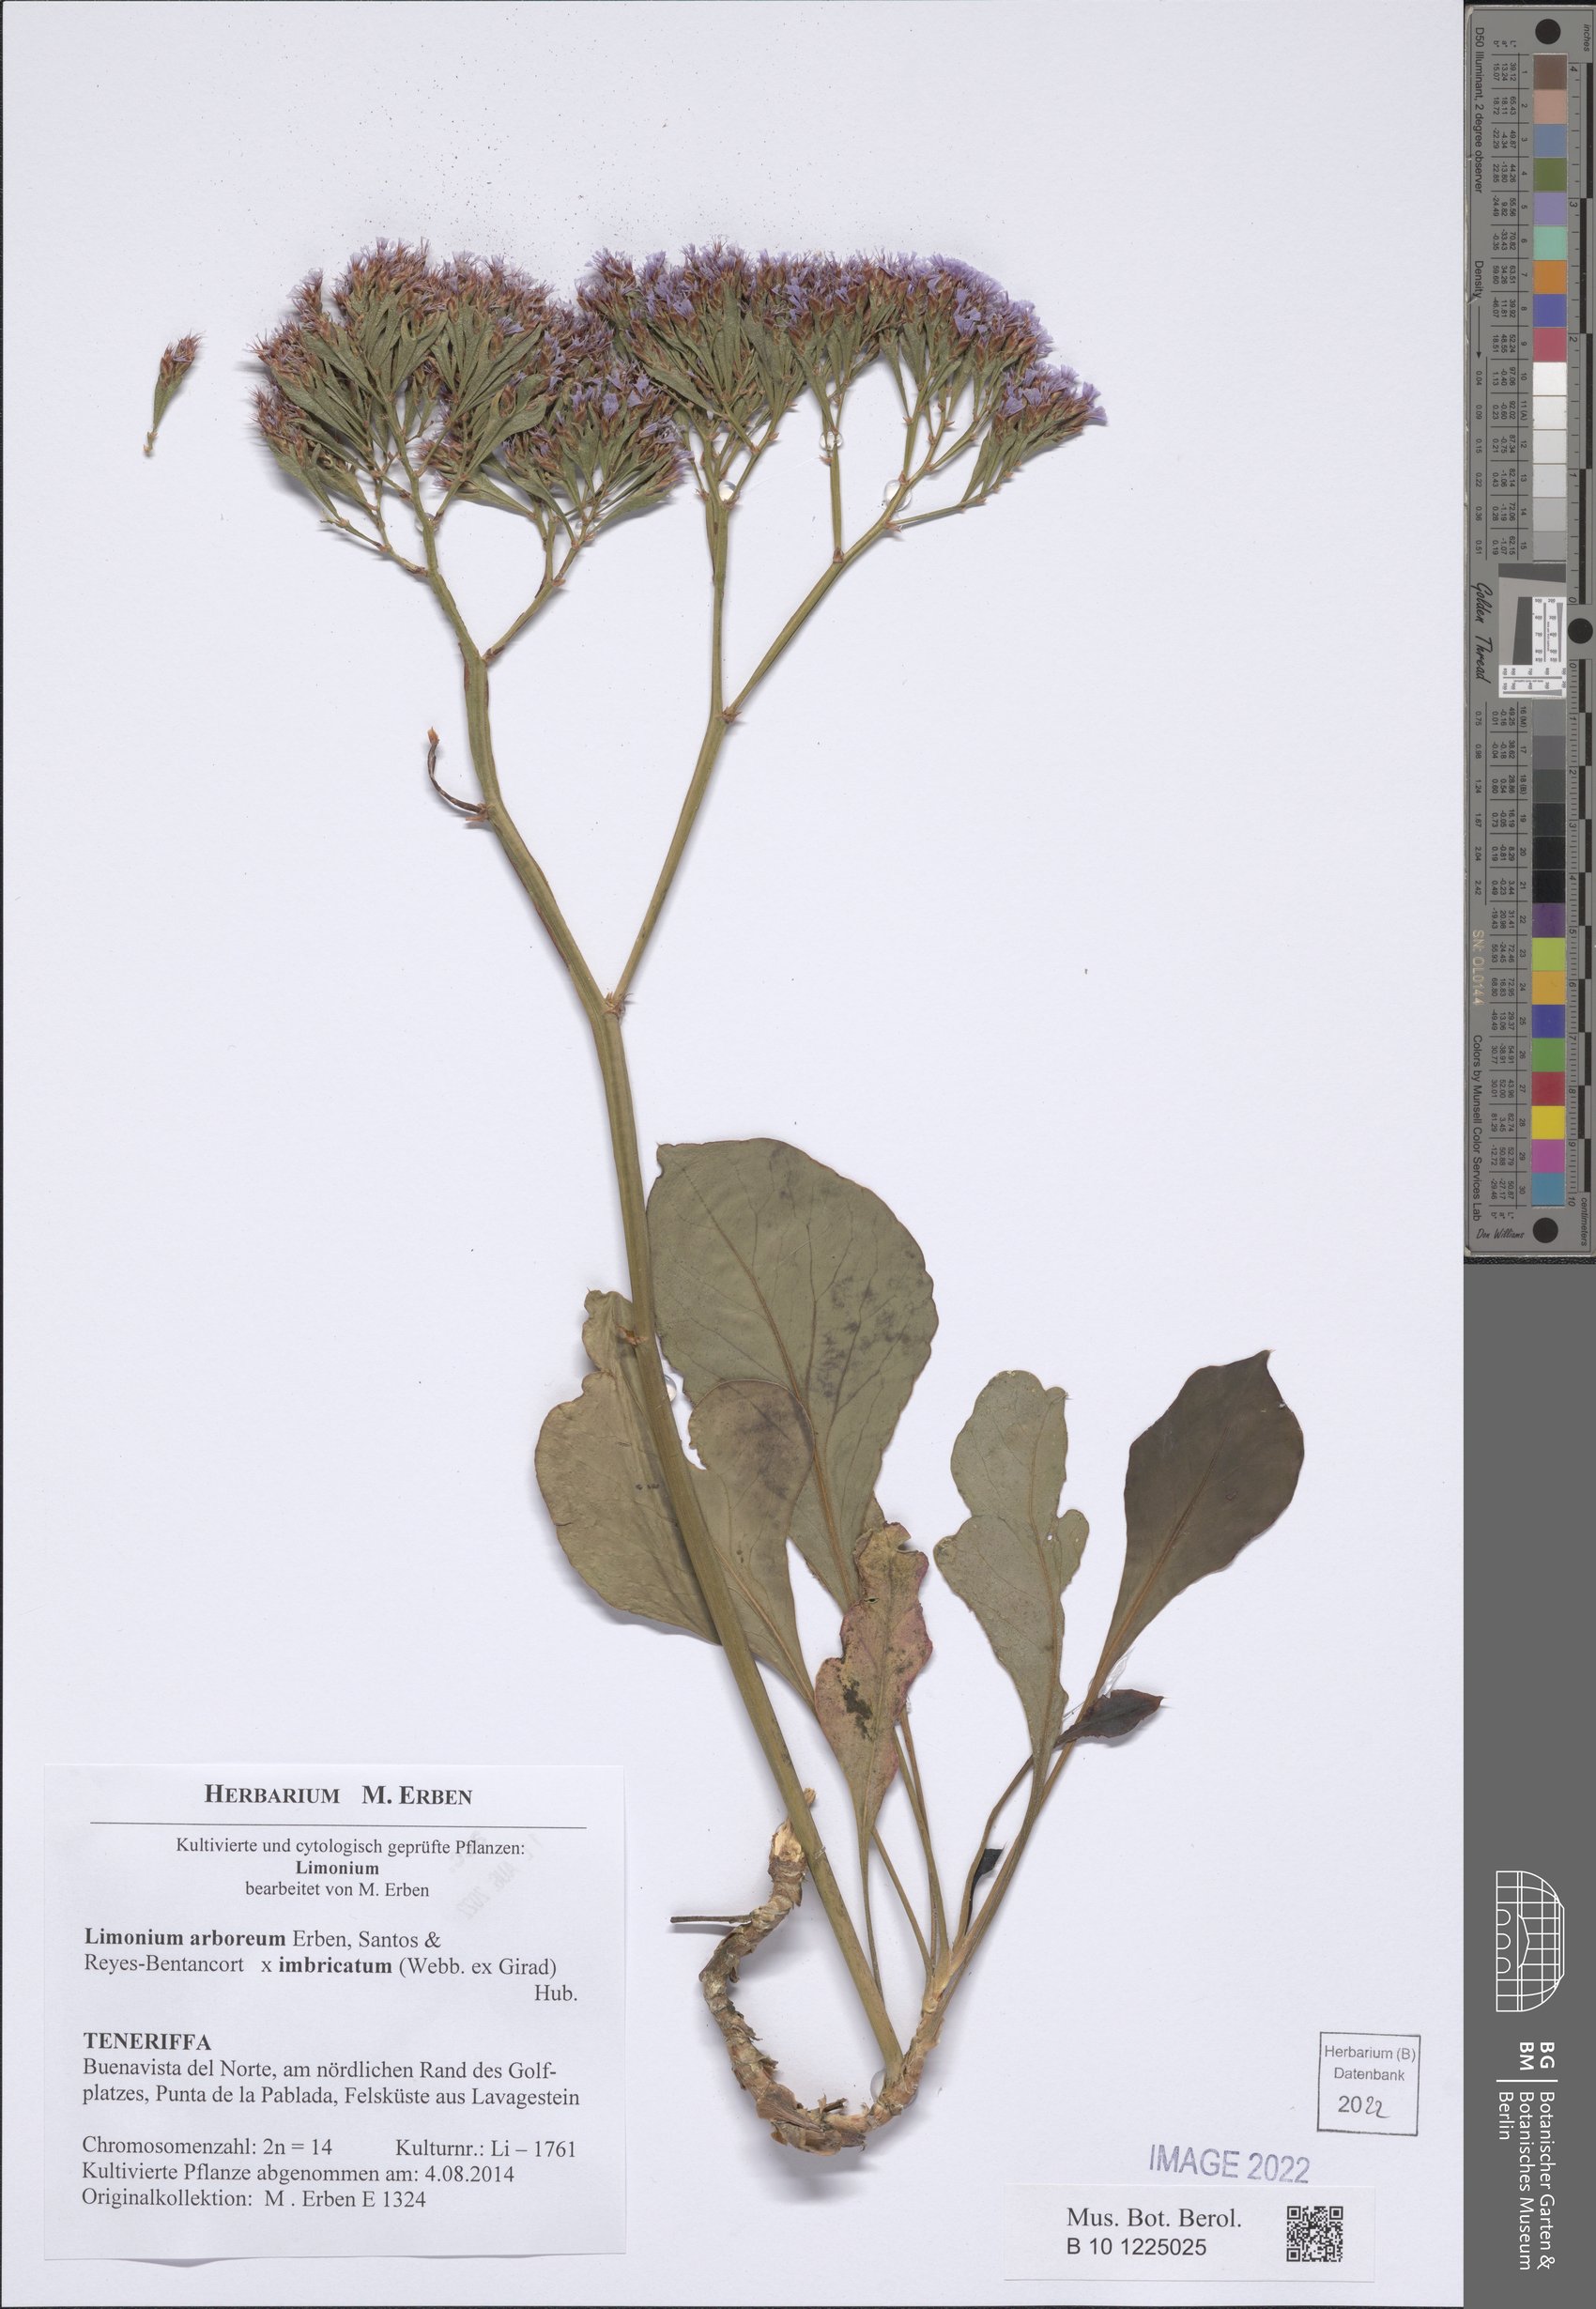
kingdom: Plantae
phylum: Tracheophyta
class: Magnoliopsida
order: Caryophyllales
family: Plumbaginaceae
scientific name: Plumbaginaceae
